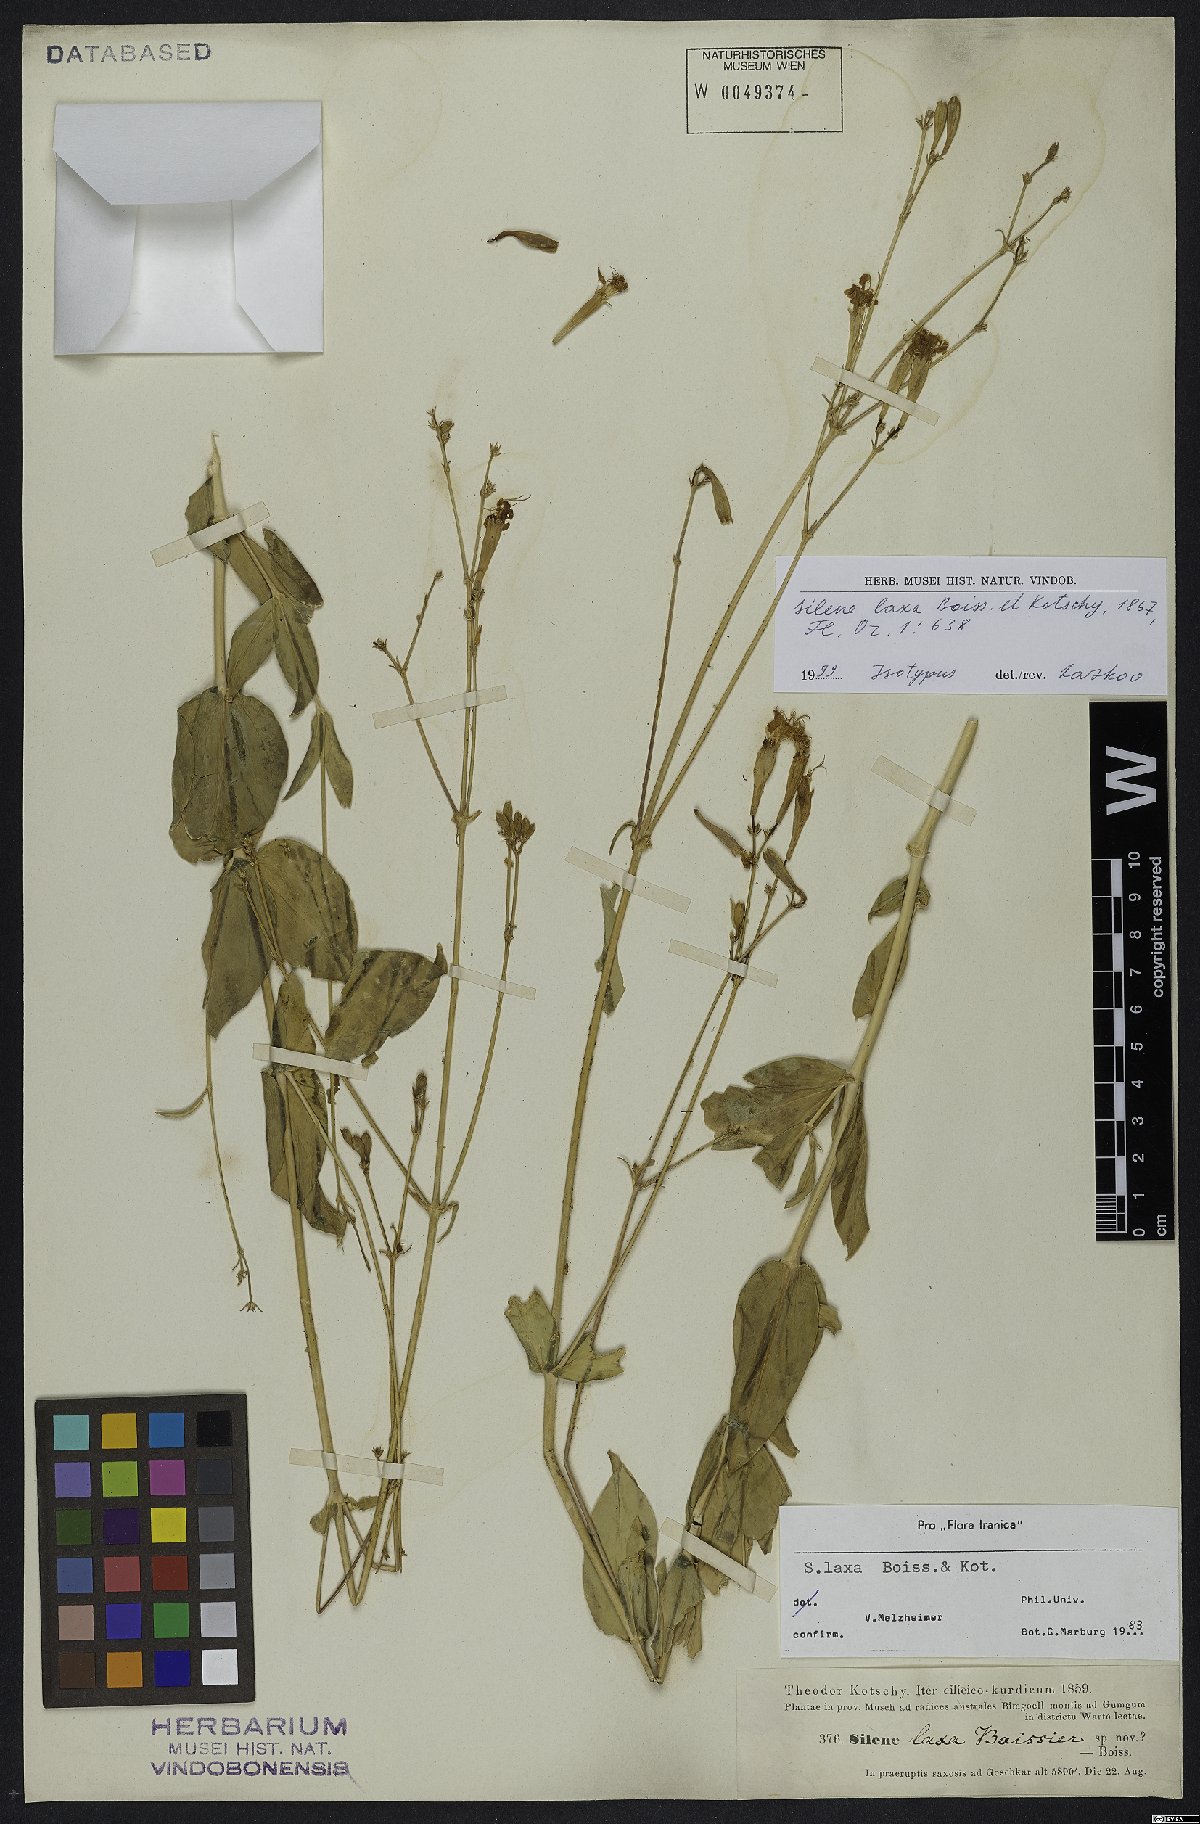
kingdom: Plantae
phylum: Tracheophyta
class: Magnoliopsida
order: Caryophyllales
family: Caryophyllaceae
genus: Silene
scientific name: Silene laxa
